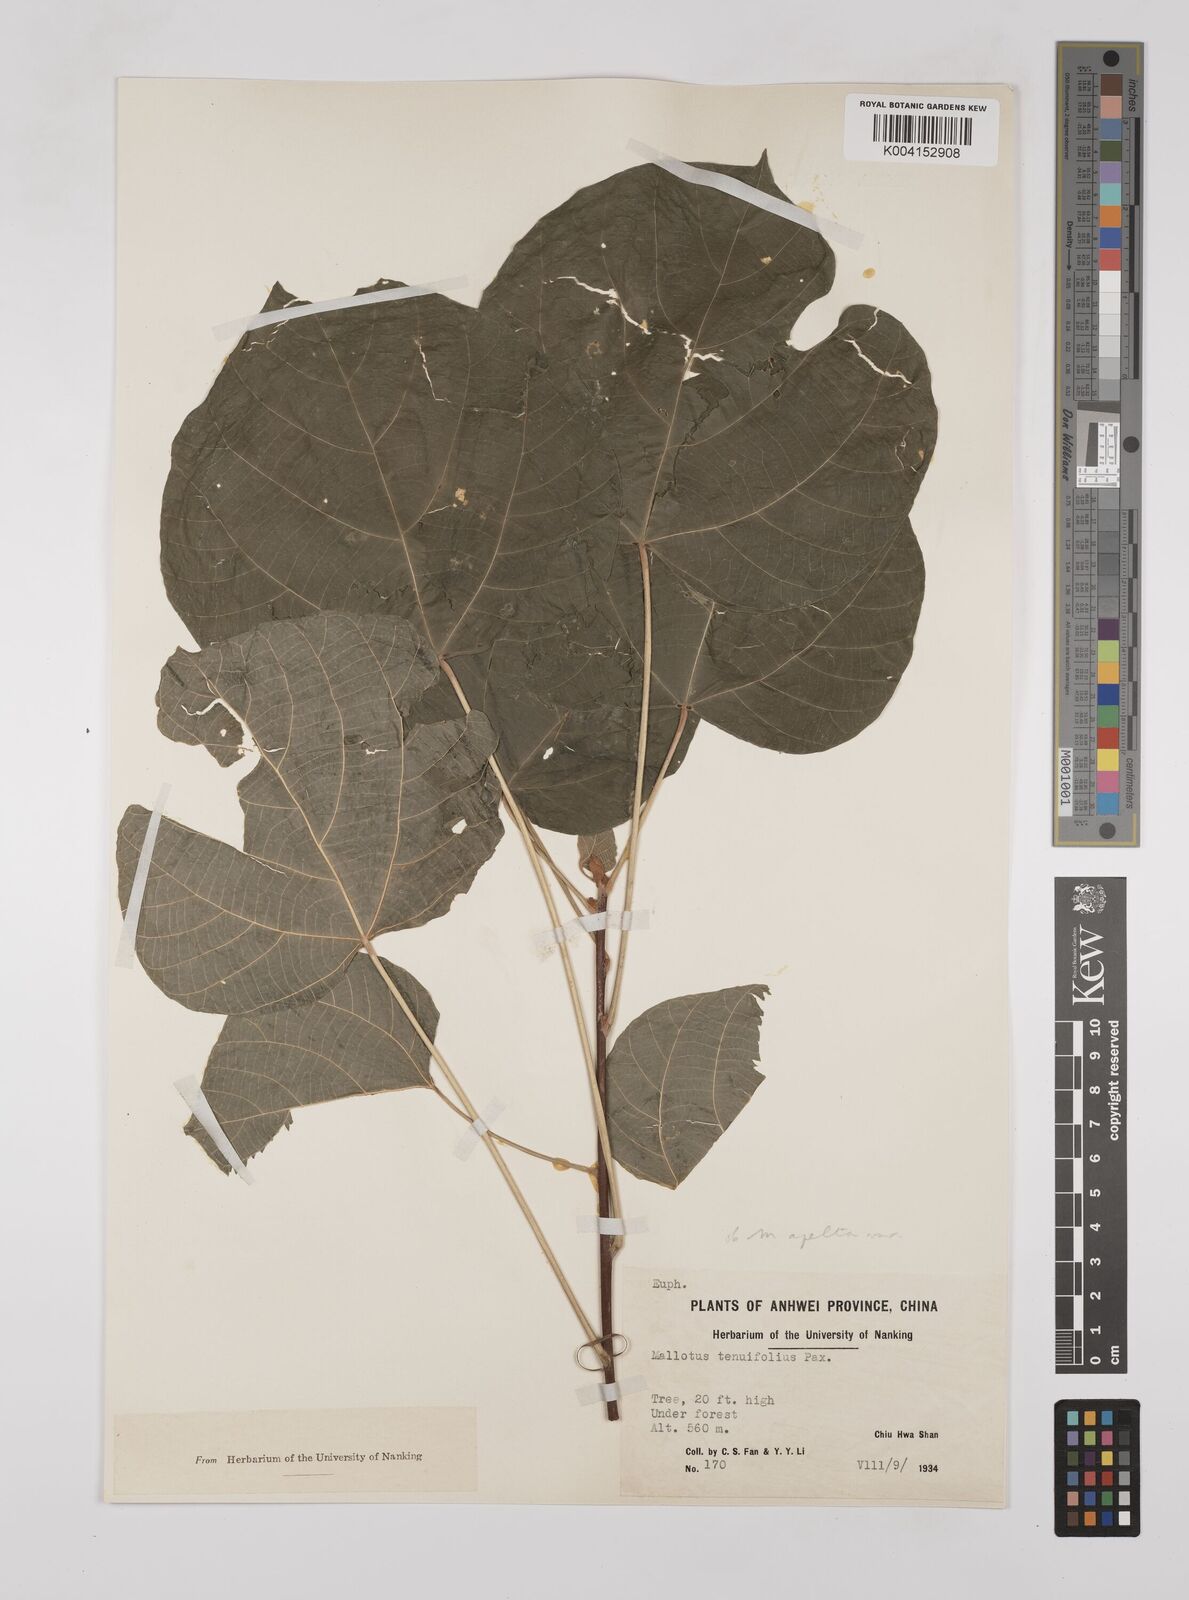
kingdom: Plantae
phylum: Tracheophyta
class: Magnoliopsida
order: Malpighiales
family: Euphorbiaceae
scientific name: Euphorbiaceae
